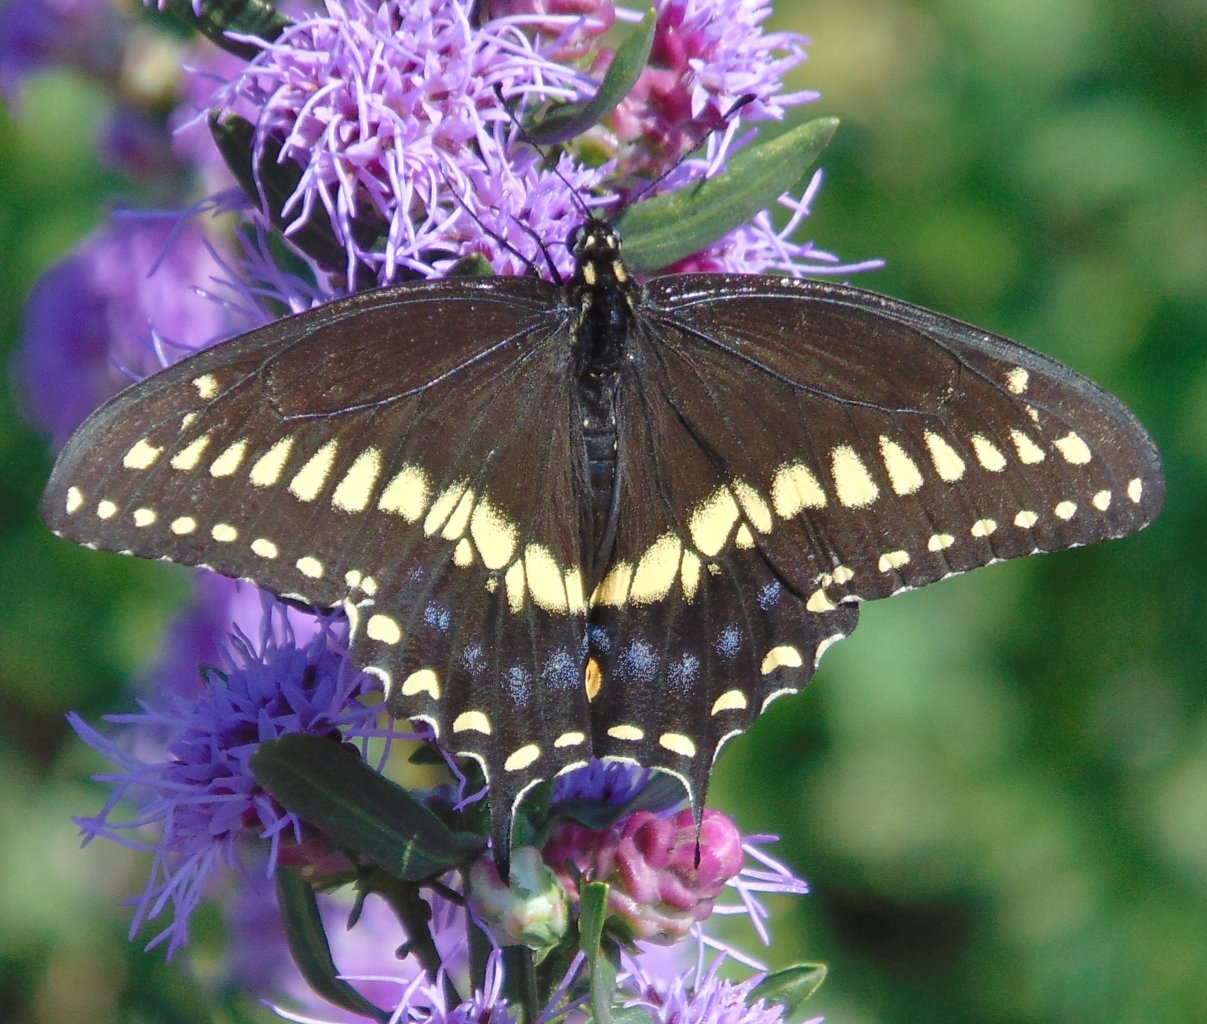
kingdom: Animalia
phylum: Arthropoda
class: Insecta
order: Lepidoptera
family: Papilionidae
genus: Papilio
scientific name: Papilio polyxenes
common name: Black Swallowtail
